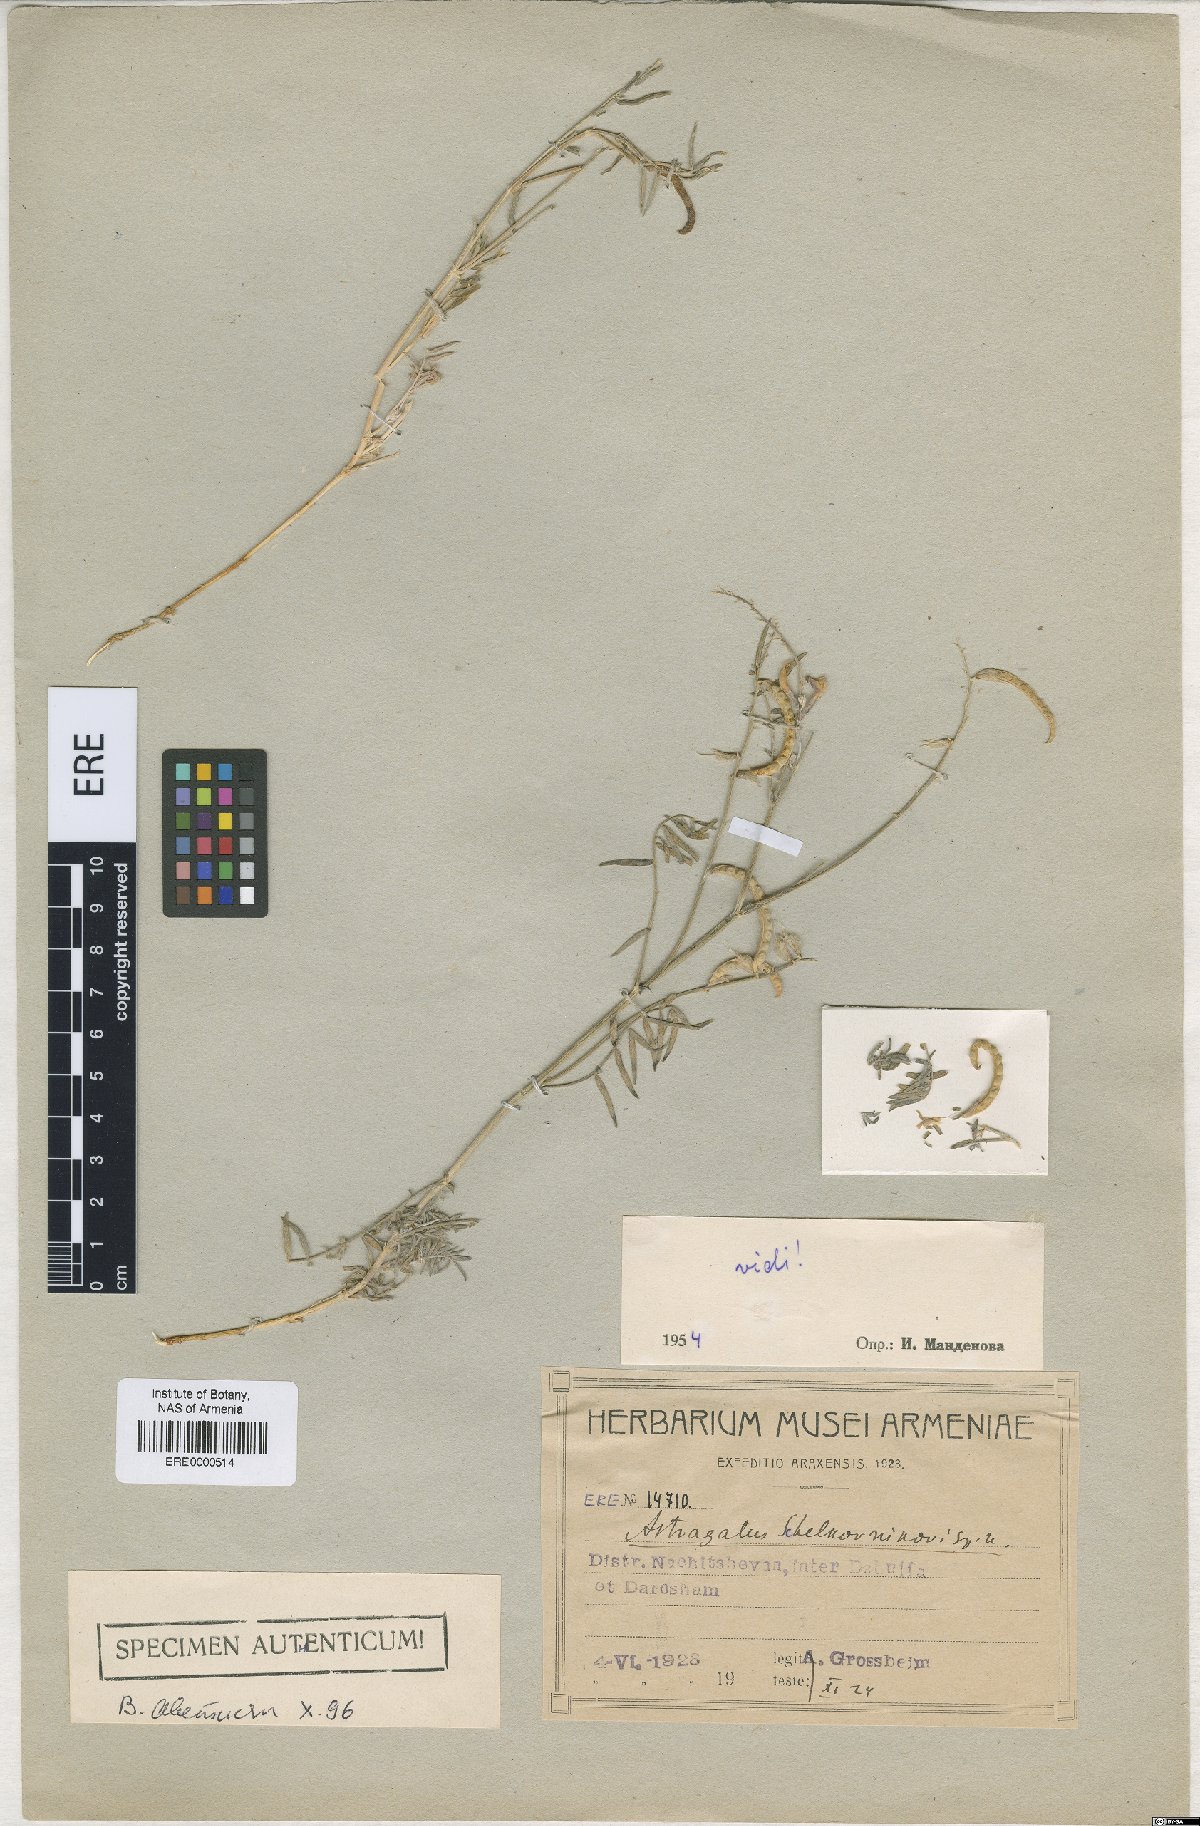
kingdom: Plantae
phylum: Tracheophyta
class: Magnoliopsida
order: Fabales
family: Fabaceae
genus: Astragalus
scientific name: Astragalus shelkovnikovii
